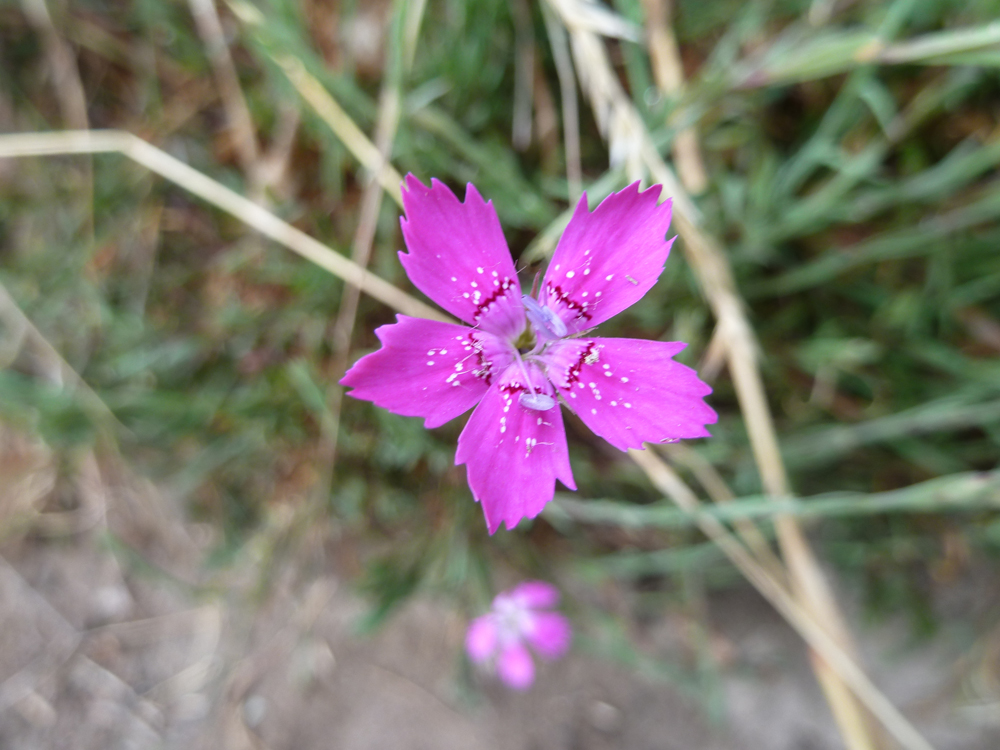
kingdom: Plantae
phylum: Tracheophyta
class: Magnoliopsida
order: Caryophyllales
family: Caryophyllaceae
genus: Dianthus
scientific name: Dianthus deltoides
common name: Maiden pink
